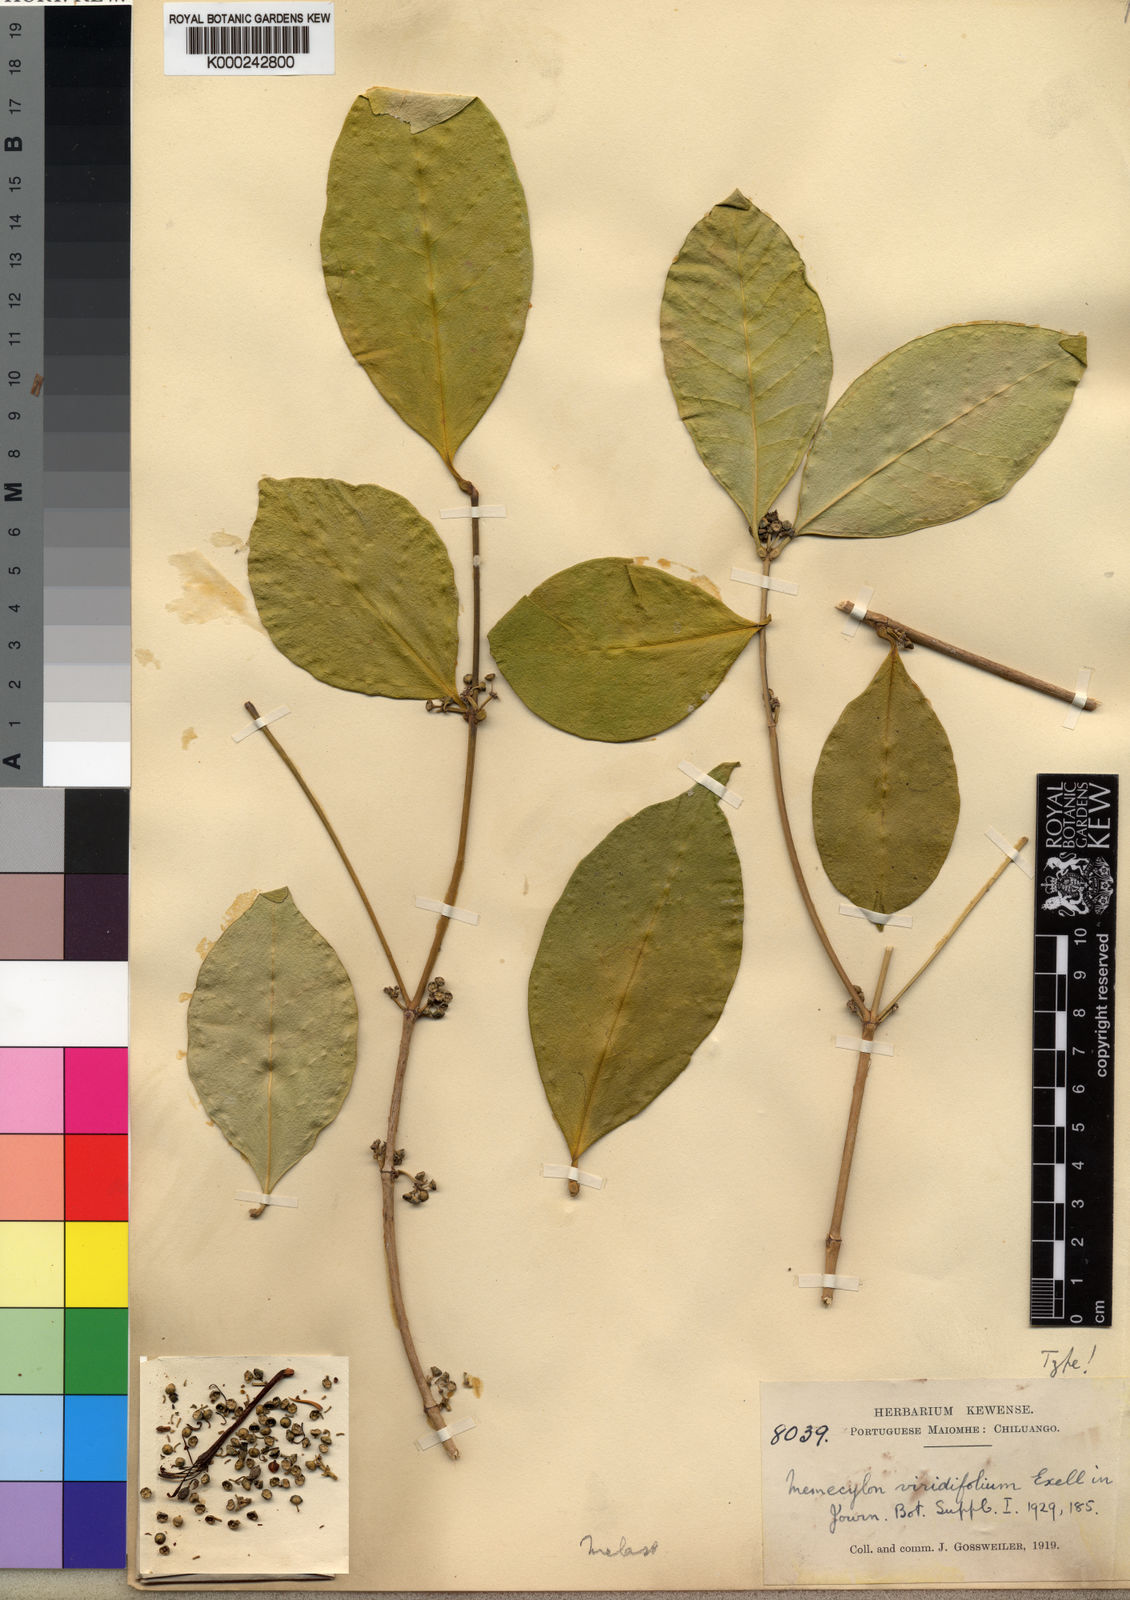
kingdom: Plantae
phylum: Tracheophyta
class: Magnoliopsida
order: Myrtales
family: Melastomataceae
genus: Memecylon
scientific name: Memecylon virescens
